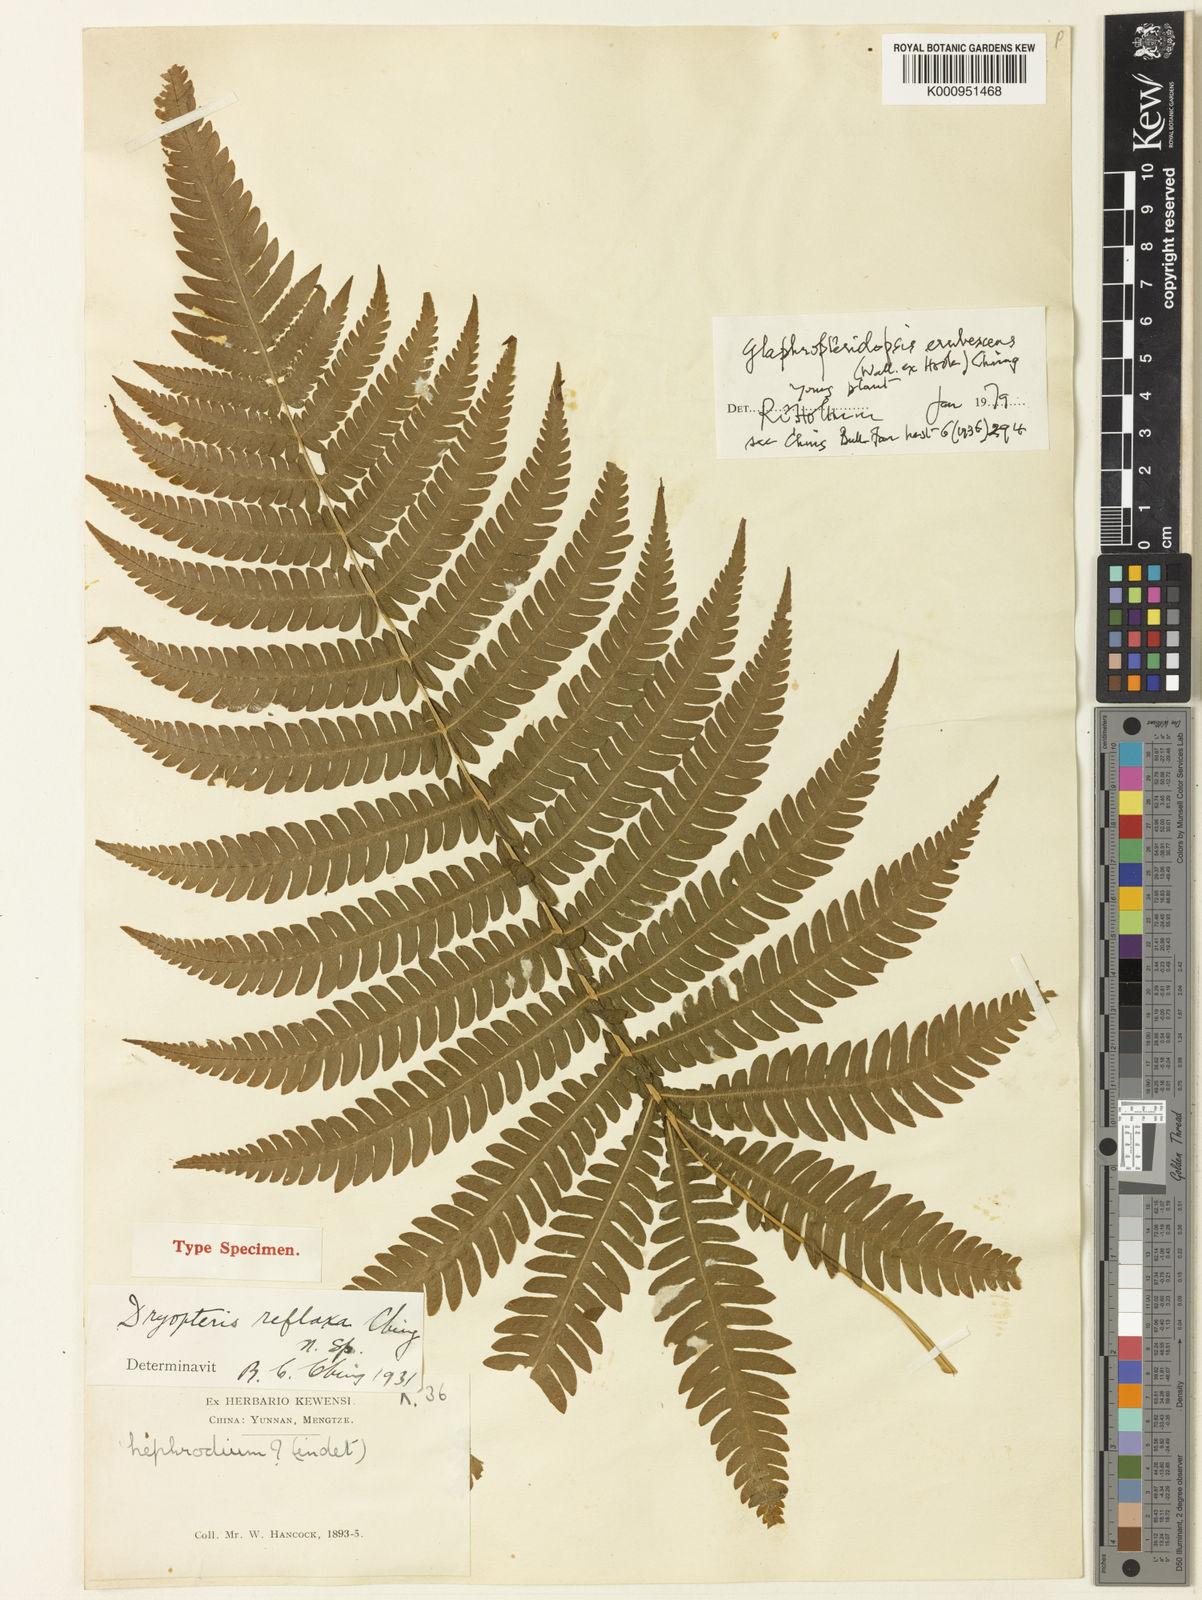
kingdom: Plantae
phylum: Tracheophyta
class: Polypodiopsida
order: Polypodiales
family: Thelypteridaceae
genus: Glaphyropteridopsis
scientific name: Glaphyropteridopsis erubescens
